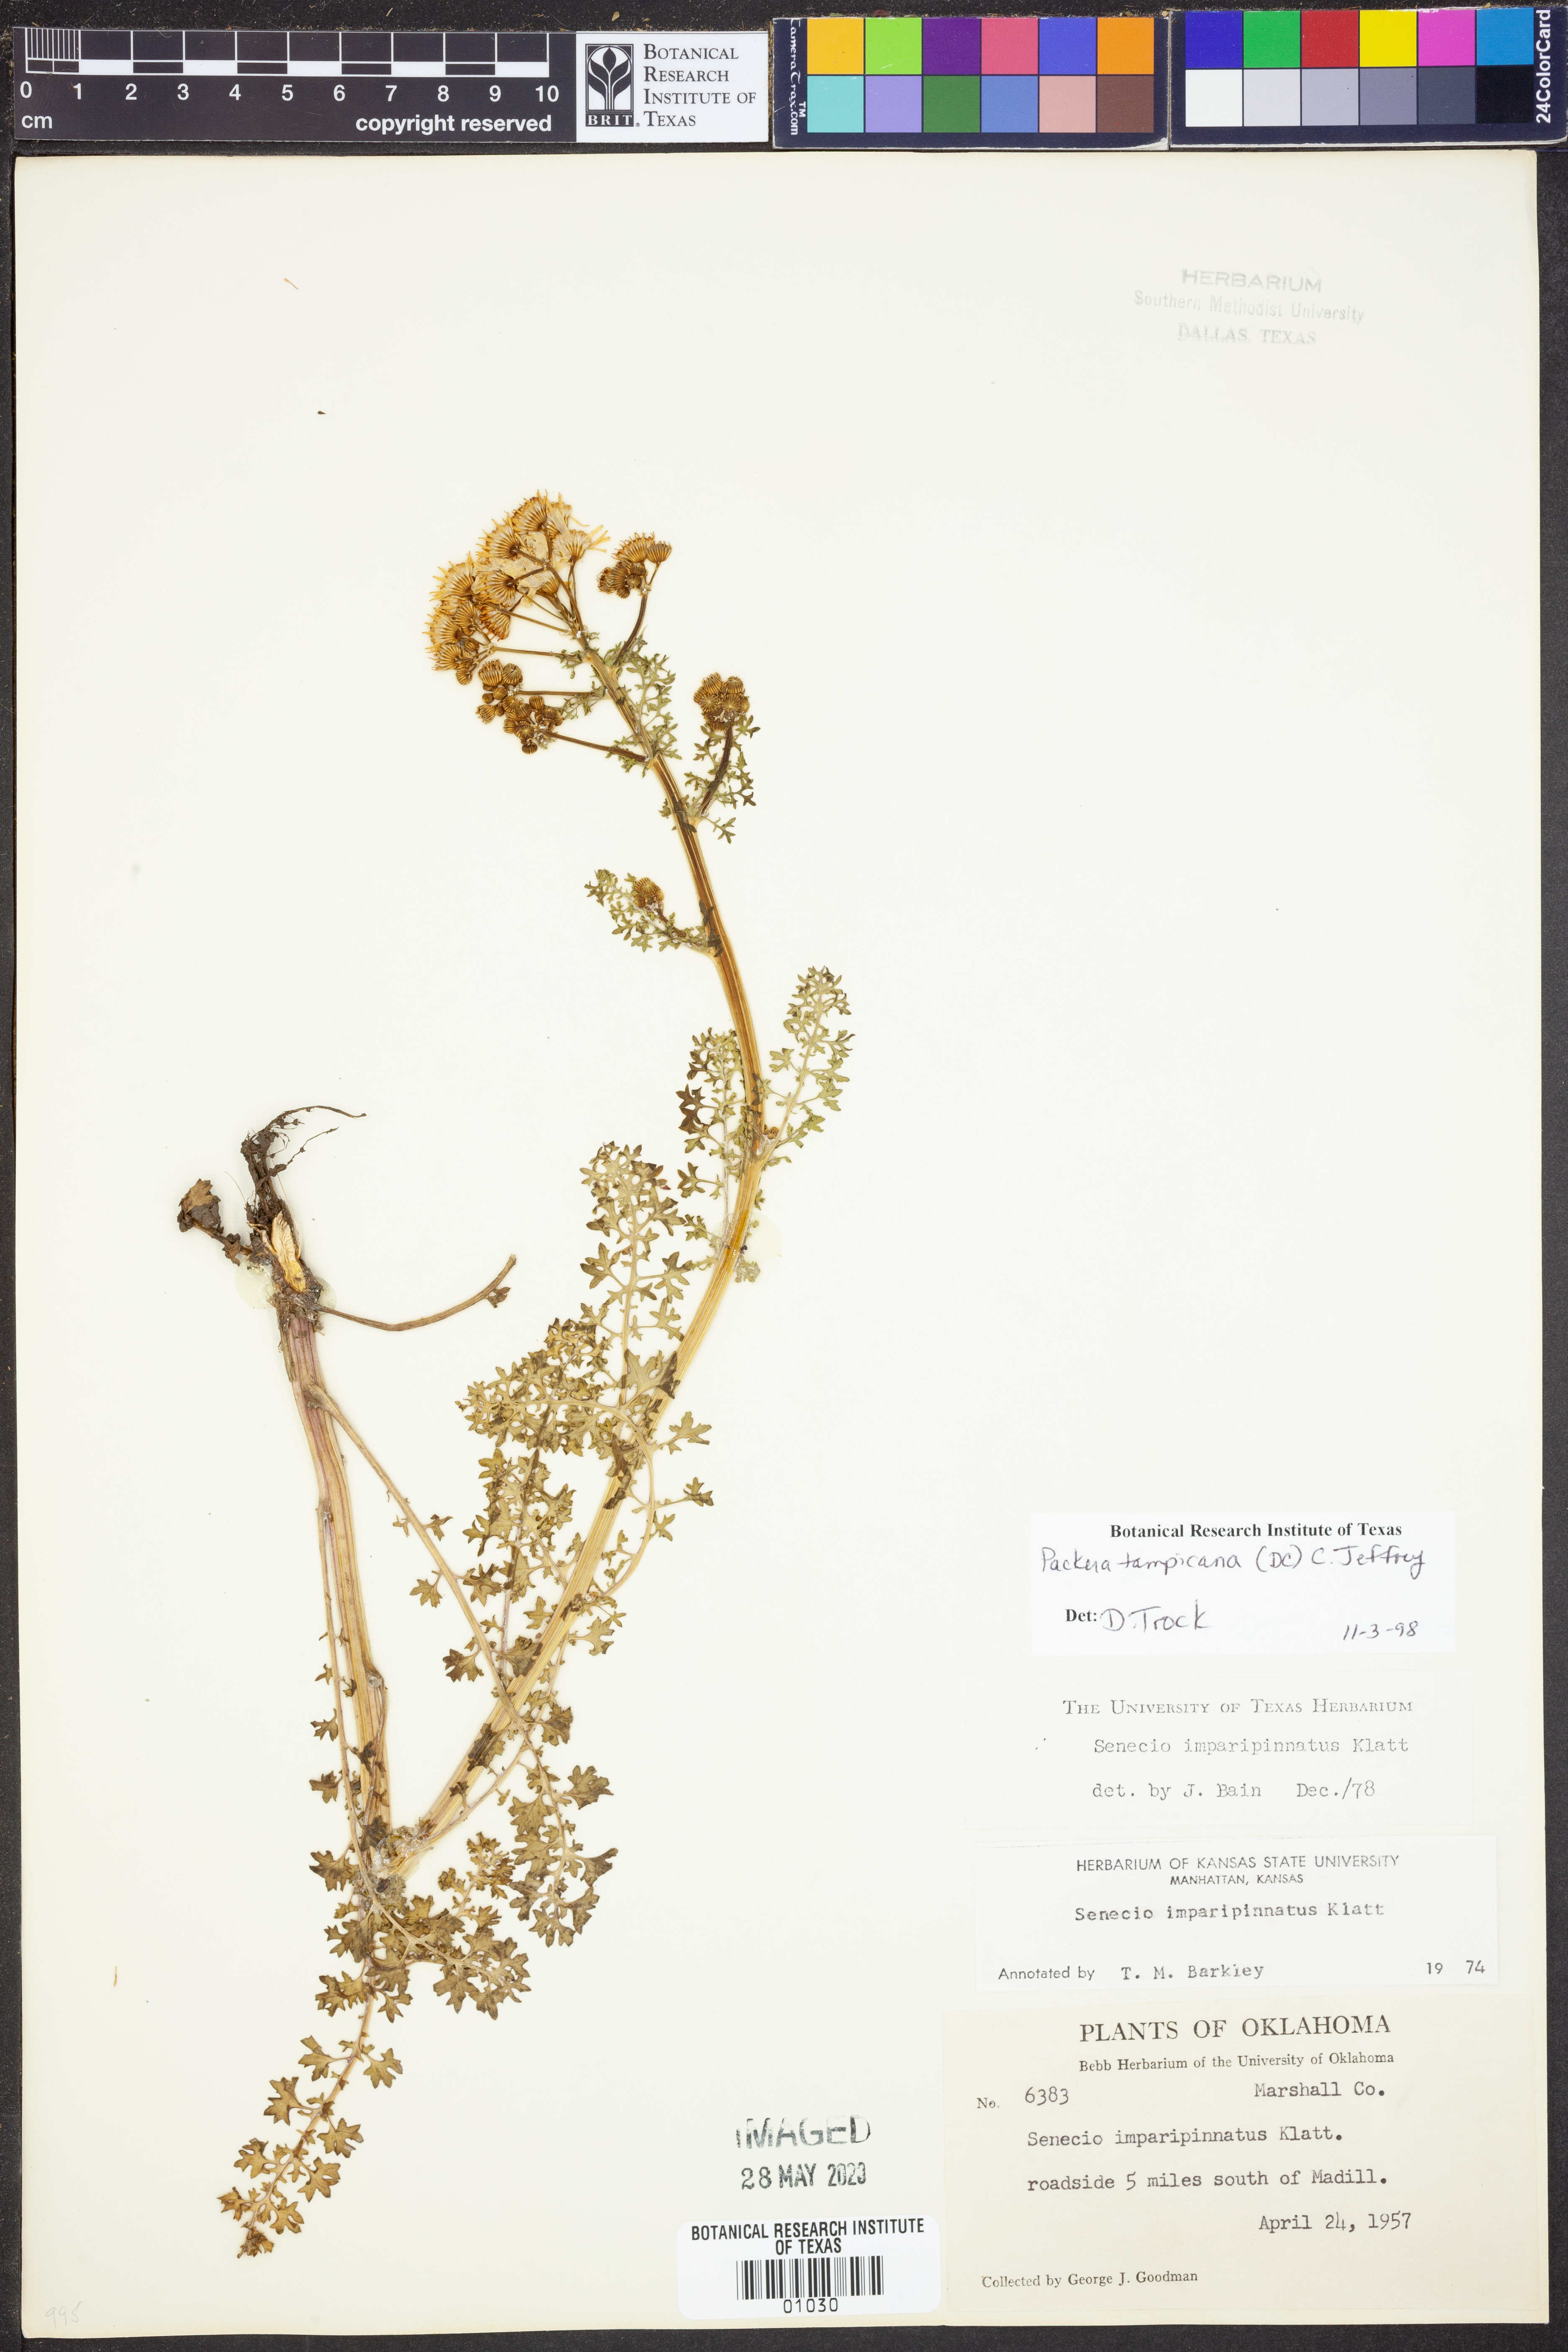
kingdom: Plantae
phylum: Tracheophyta
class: Magnoliopsida
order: Asterales
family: Asteraceae
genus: Packera
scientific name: Packera tampicana
